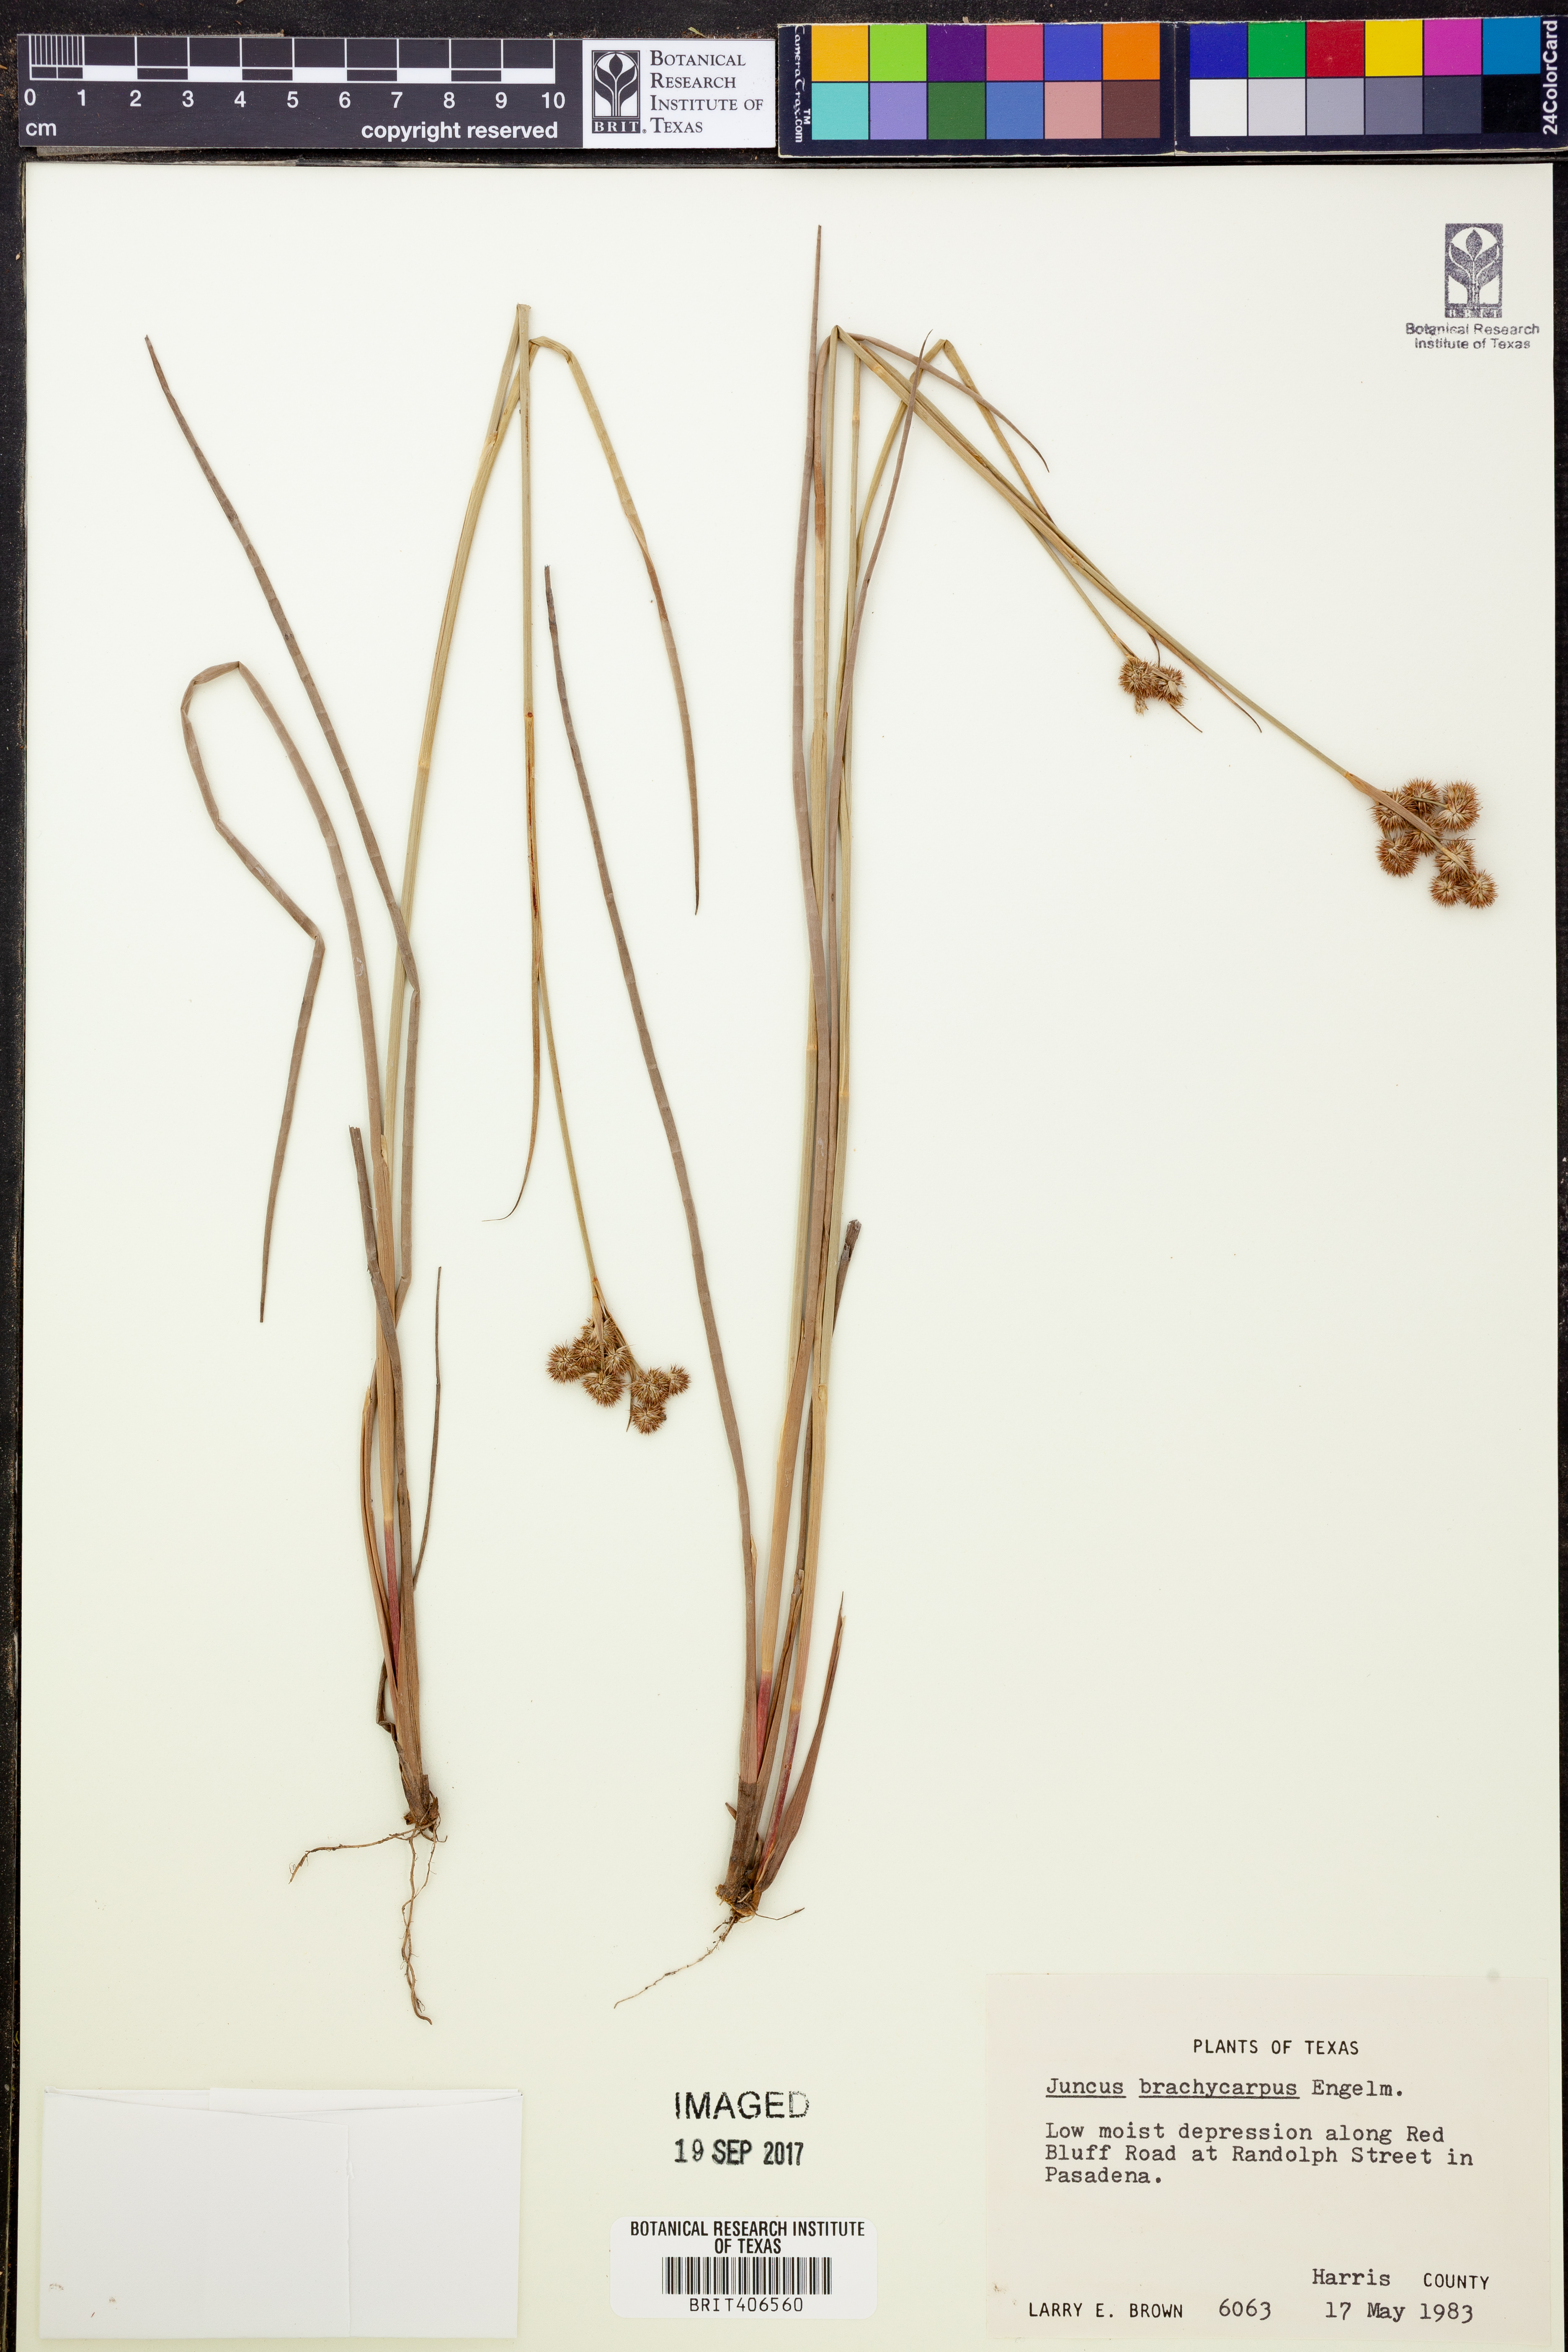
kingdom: Plantae
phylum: Tracheophyta
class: Liliopsida
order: Poales
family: Juncaceae
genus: Juncus
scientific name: Juncus brachycarpus
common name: Shore rush
